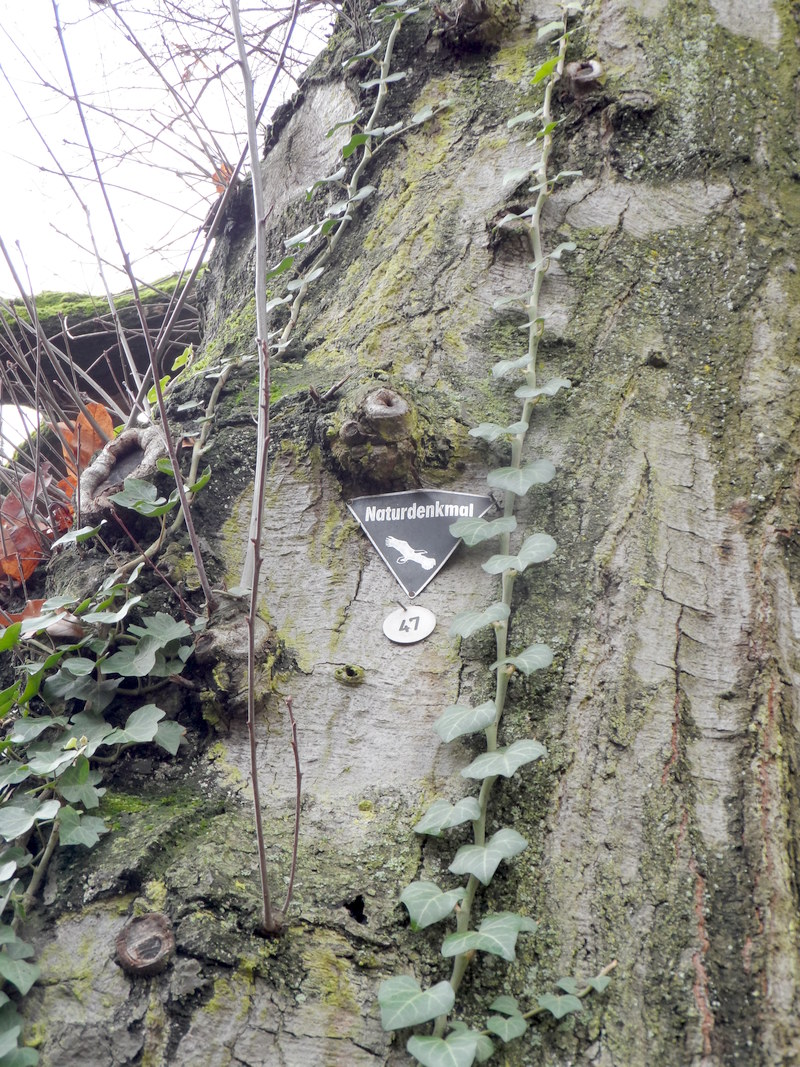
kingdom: Plantae
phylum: Tracheophyta
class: Magnoliopsida
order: Fagales
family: Fagaceae
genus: Quercus
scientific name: Quercus schochiana
